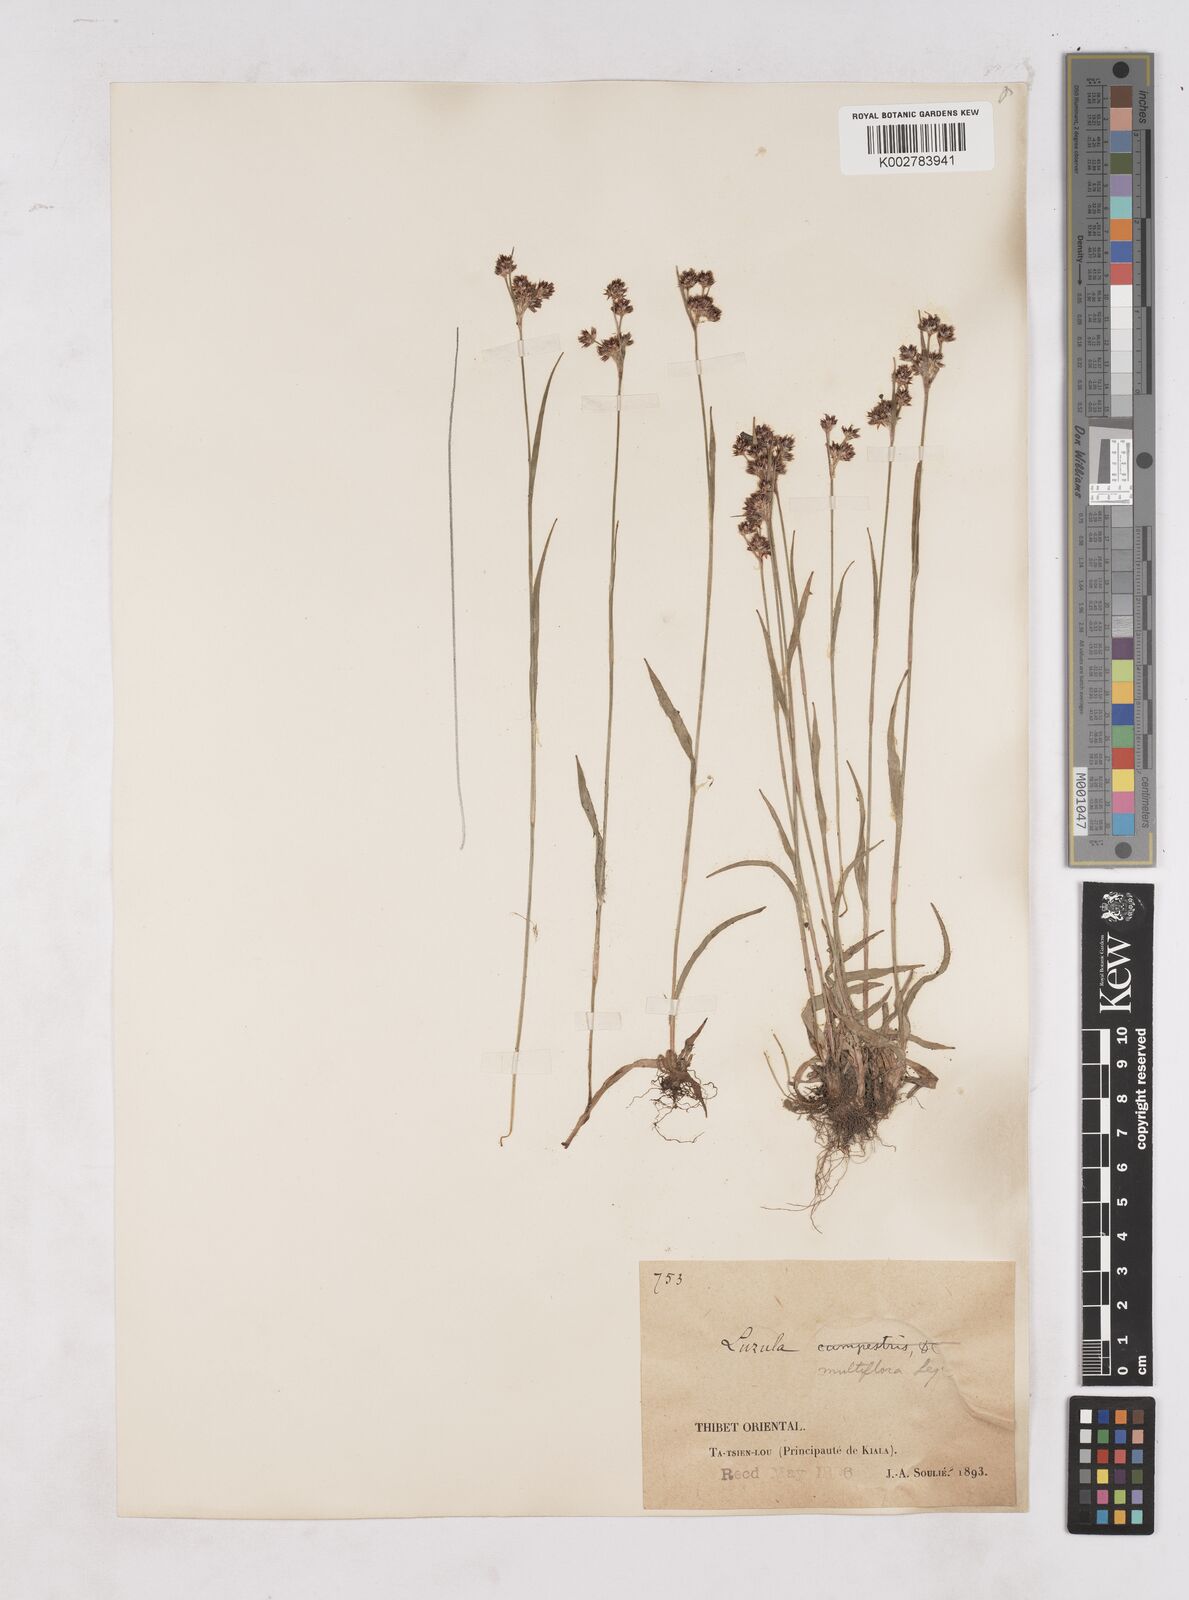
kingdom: Plantae
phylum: Tracheophyta
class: Liliopsida
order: Poales
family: Juncaceae
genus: Luzula
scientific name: Luzula campestris
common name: Field wood-rush
